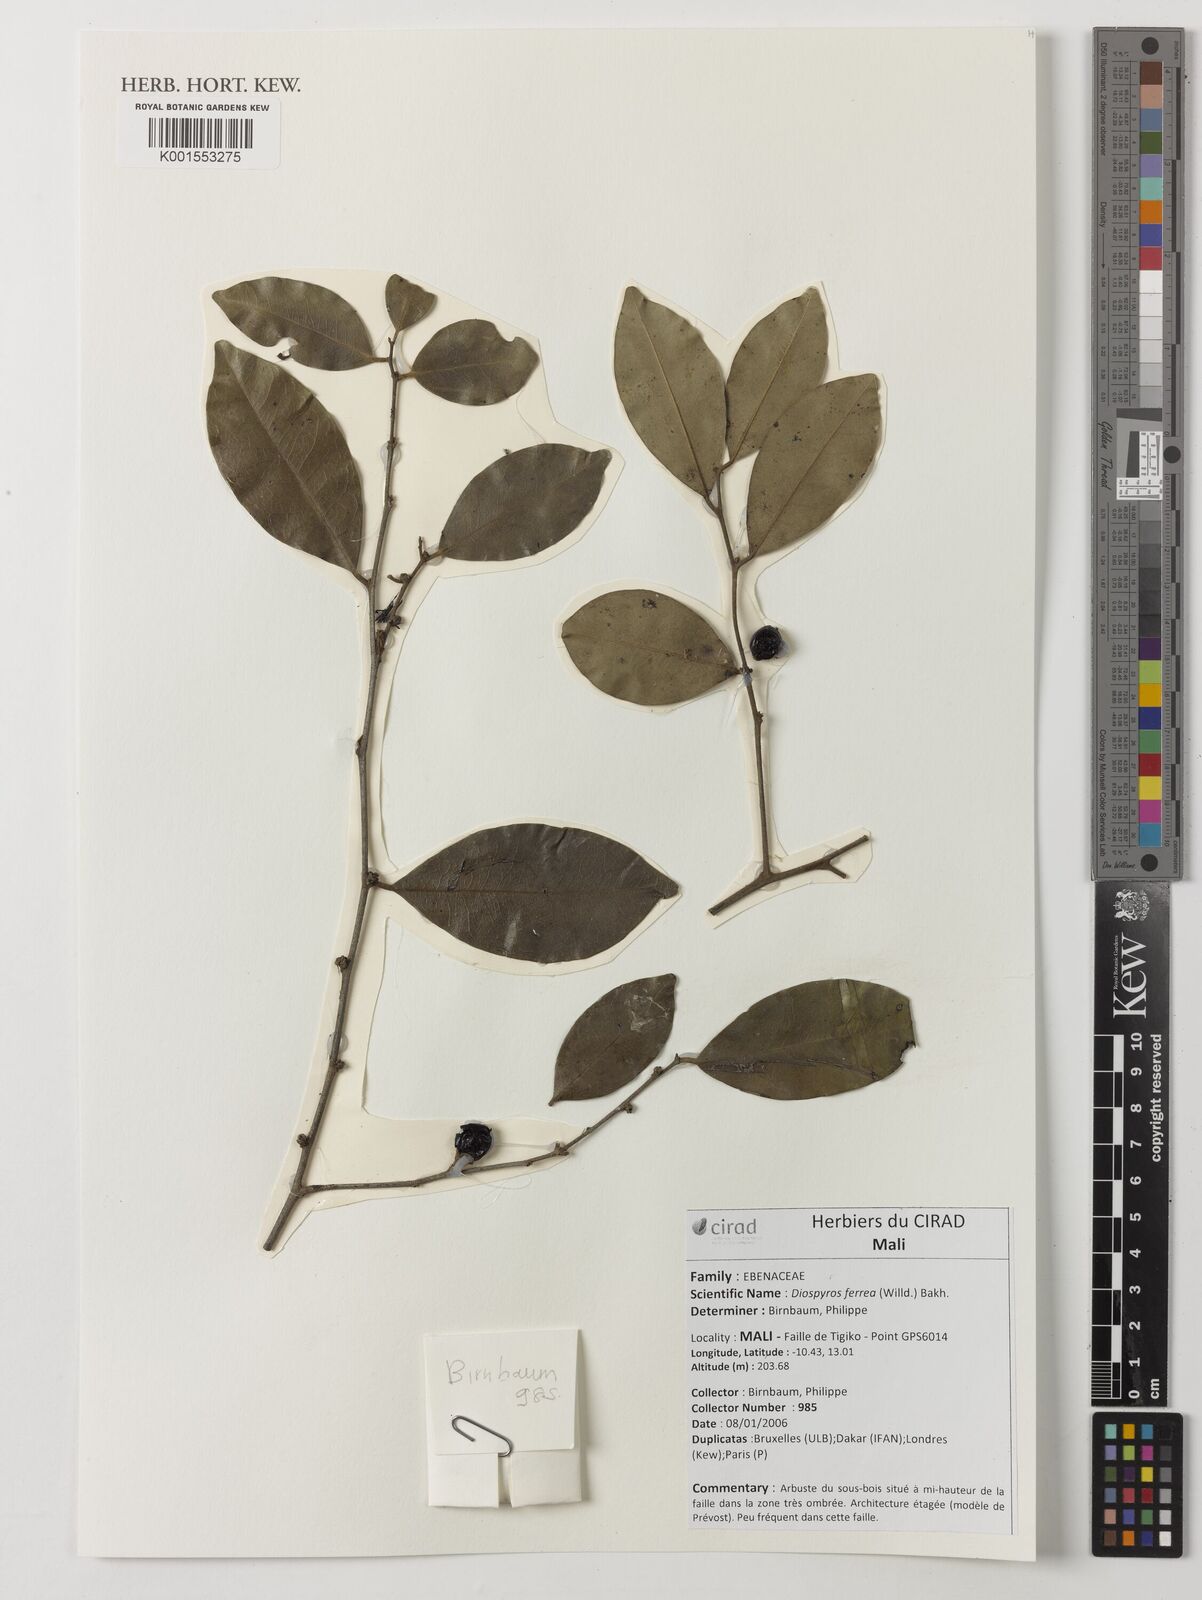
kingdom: Plantae
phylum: Tracheophyta
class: Magnoliopsida
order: Ericales
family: Ebenaceae
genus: Diospyros
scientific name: Diospyros ferrea
